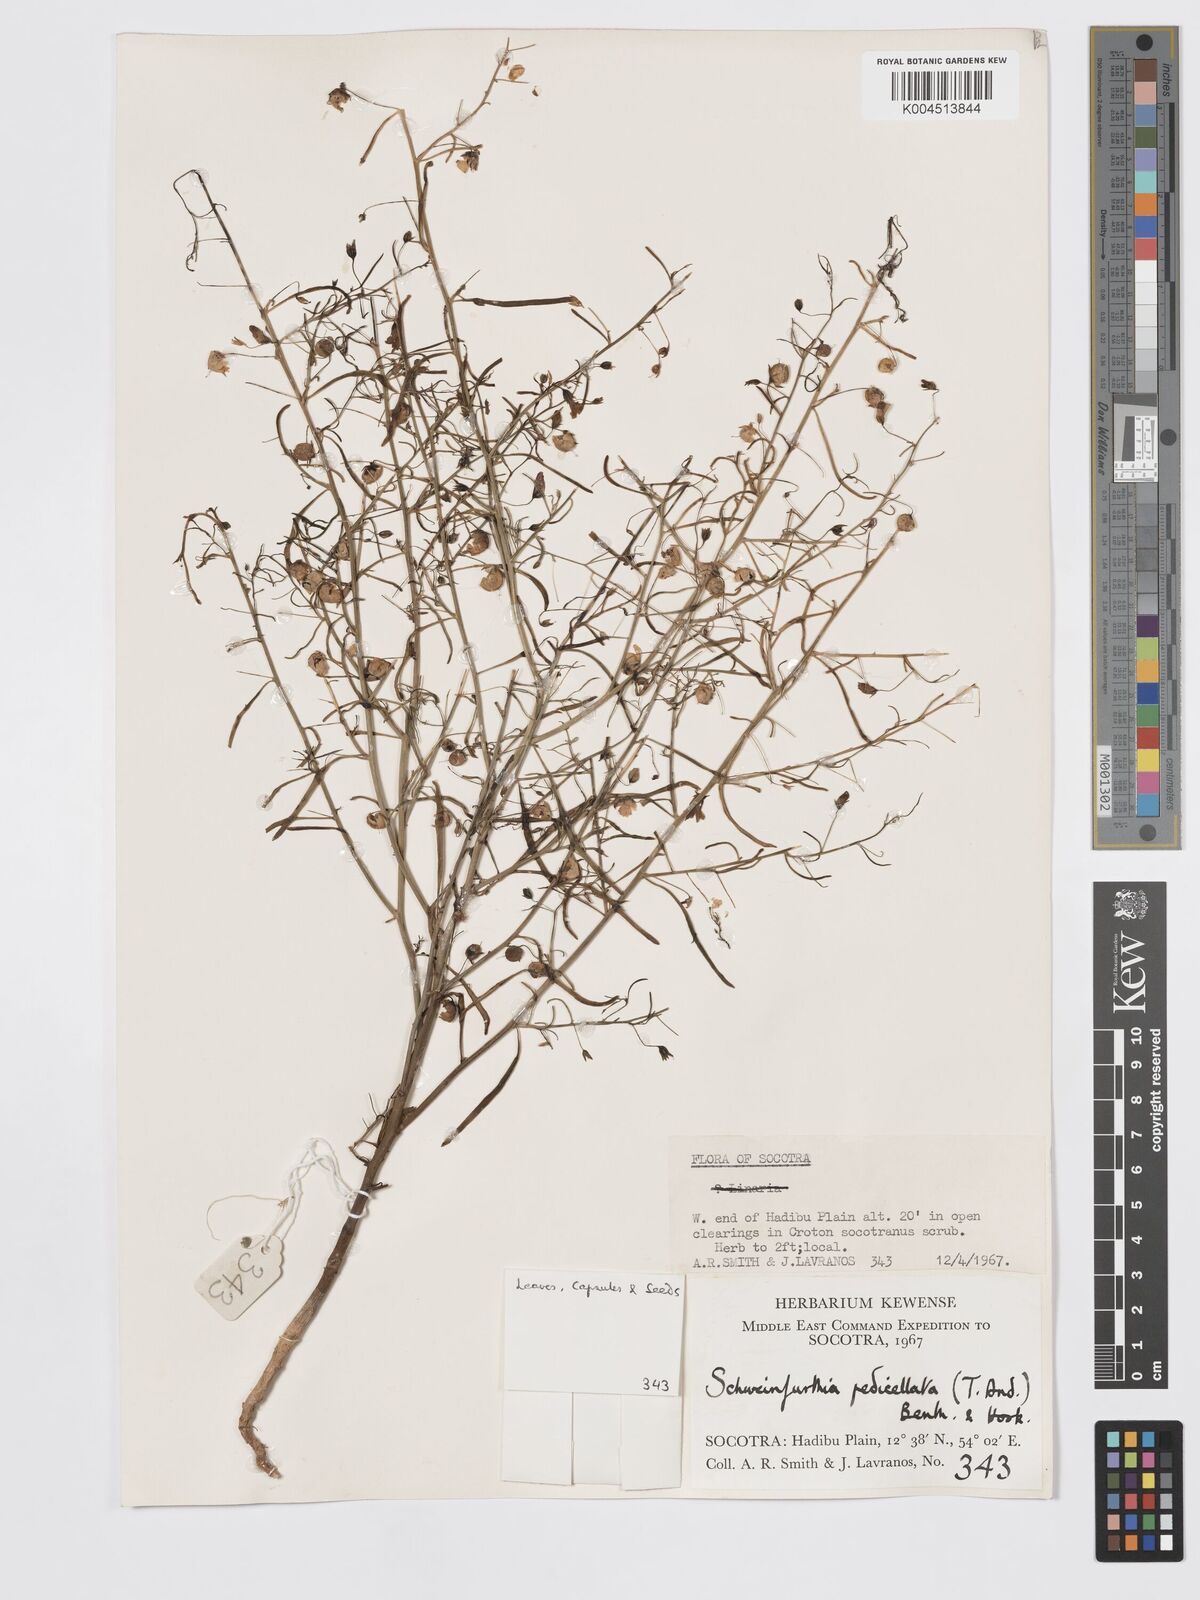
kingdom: Plantae
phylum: Tracheophyta
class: Magnoliopsida
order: Lamiales
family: Plantaginaceae
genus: Schweinfurthia
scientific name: Schweinfurthia pedicellata
